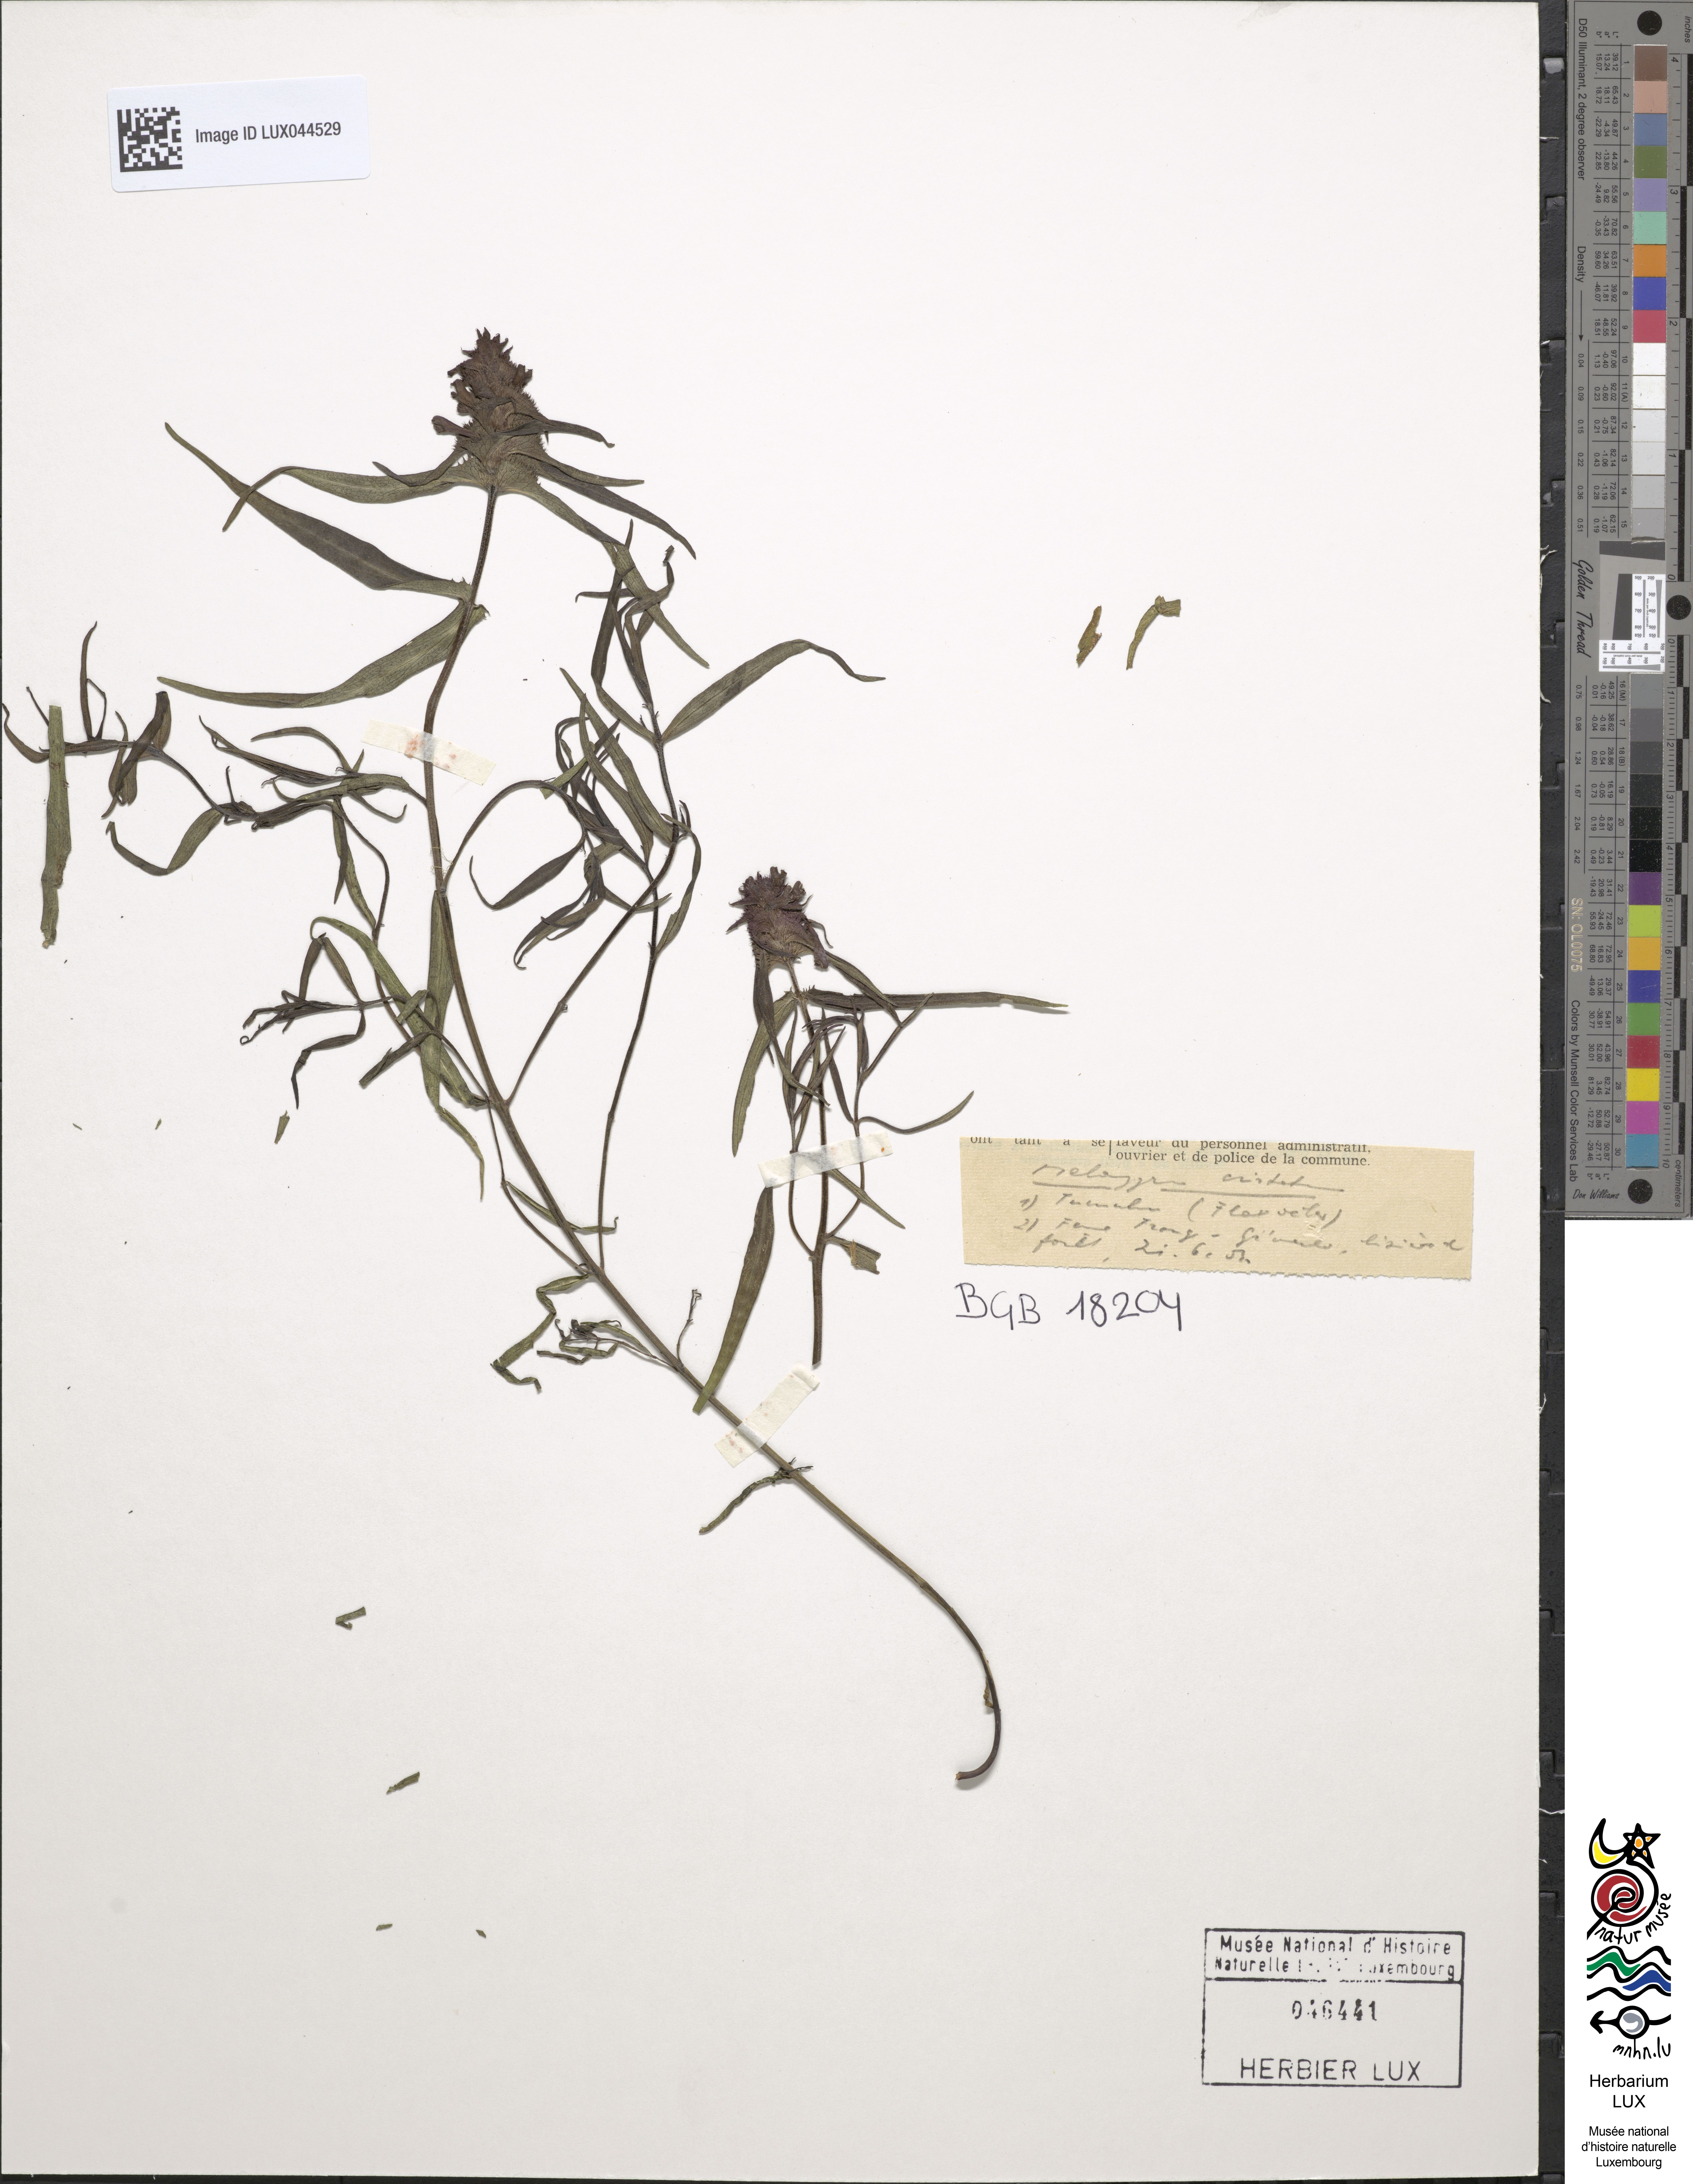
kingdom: Plantae
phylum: Tracheophyta
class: Magnoliopsida
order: Lamiales
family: Orobanchaceae
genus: Melampyrum
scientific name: Melampyrum cristatum
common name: Crested cow-wheat
